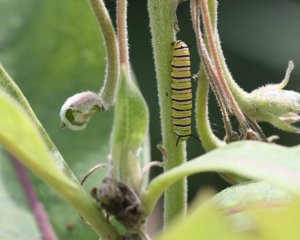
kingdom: Animalia
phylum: Arthropoda
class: Insecta
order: Lepidoptera
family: Nymphalidae
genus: Danaus
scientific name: Danaus plexippus
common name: Monarch
